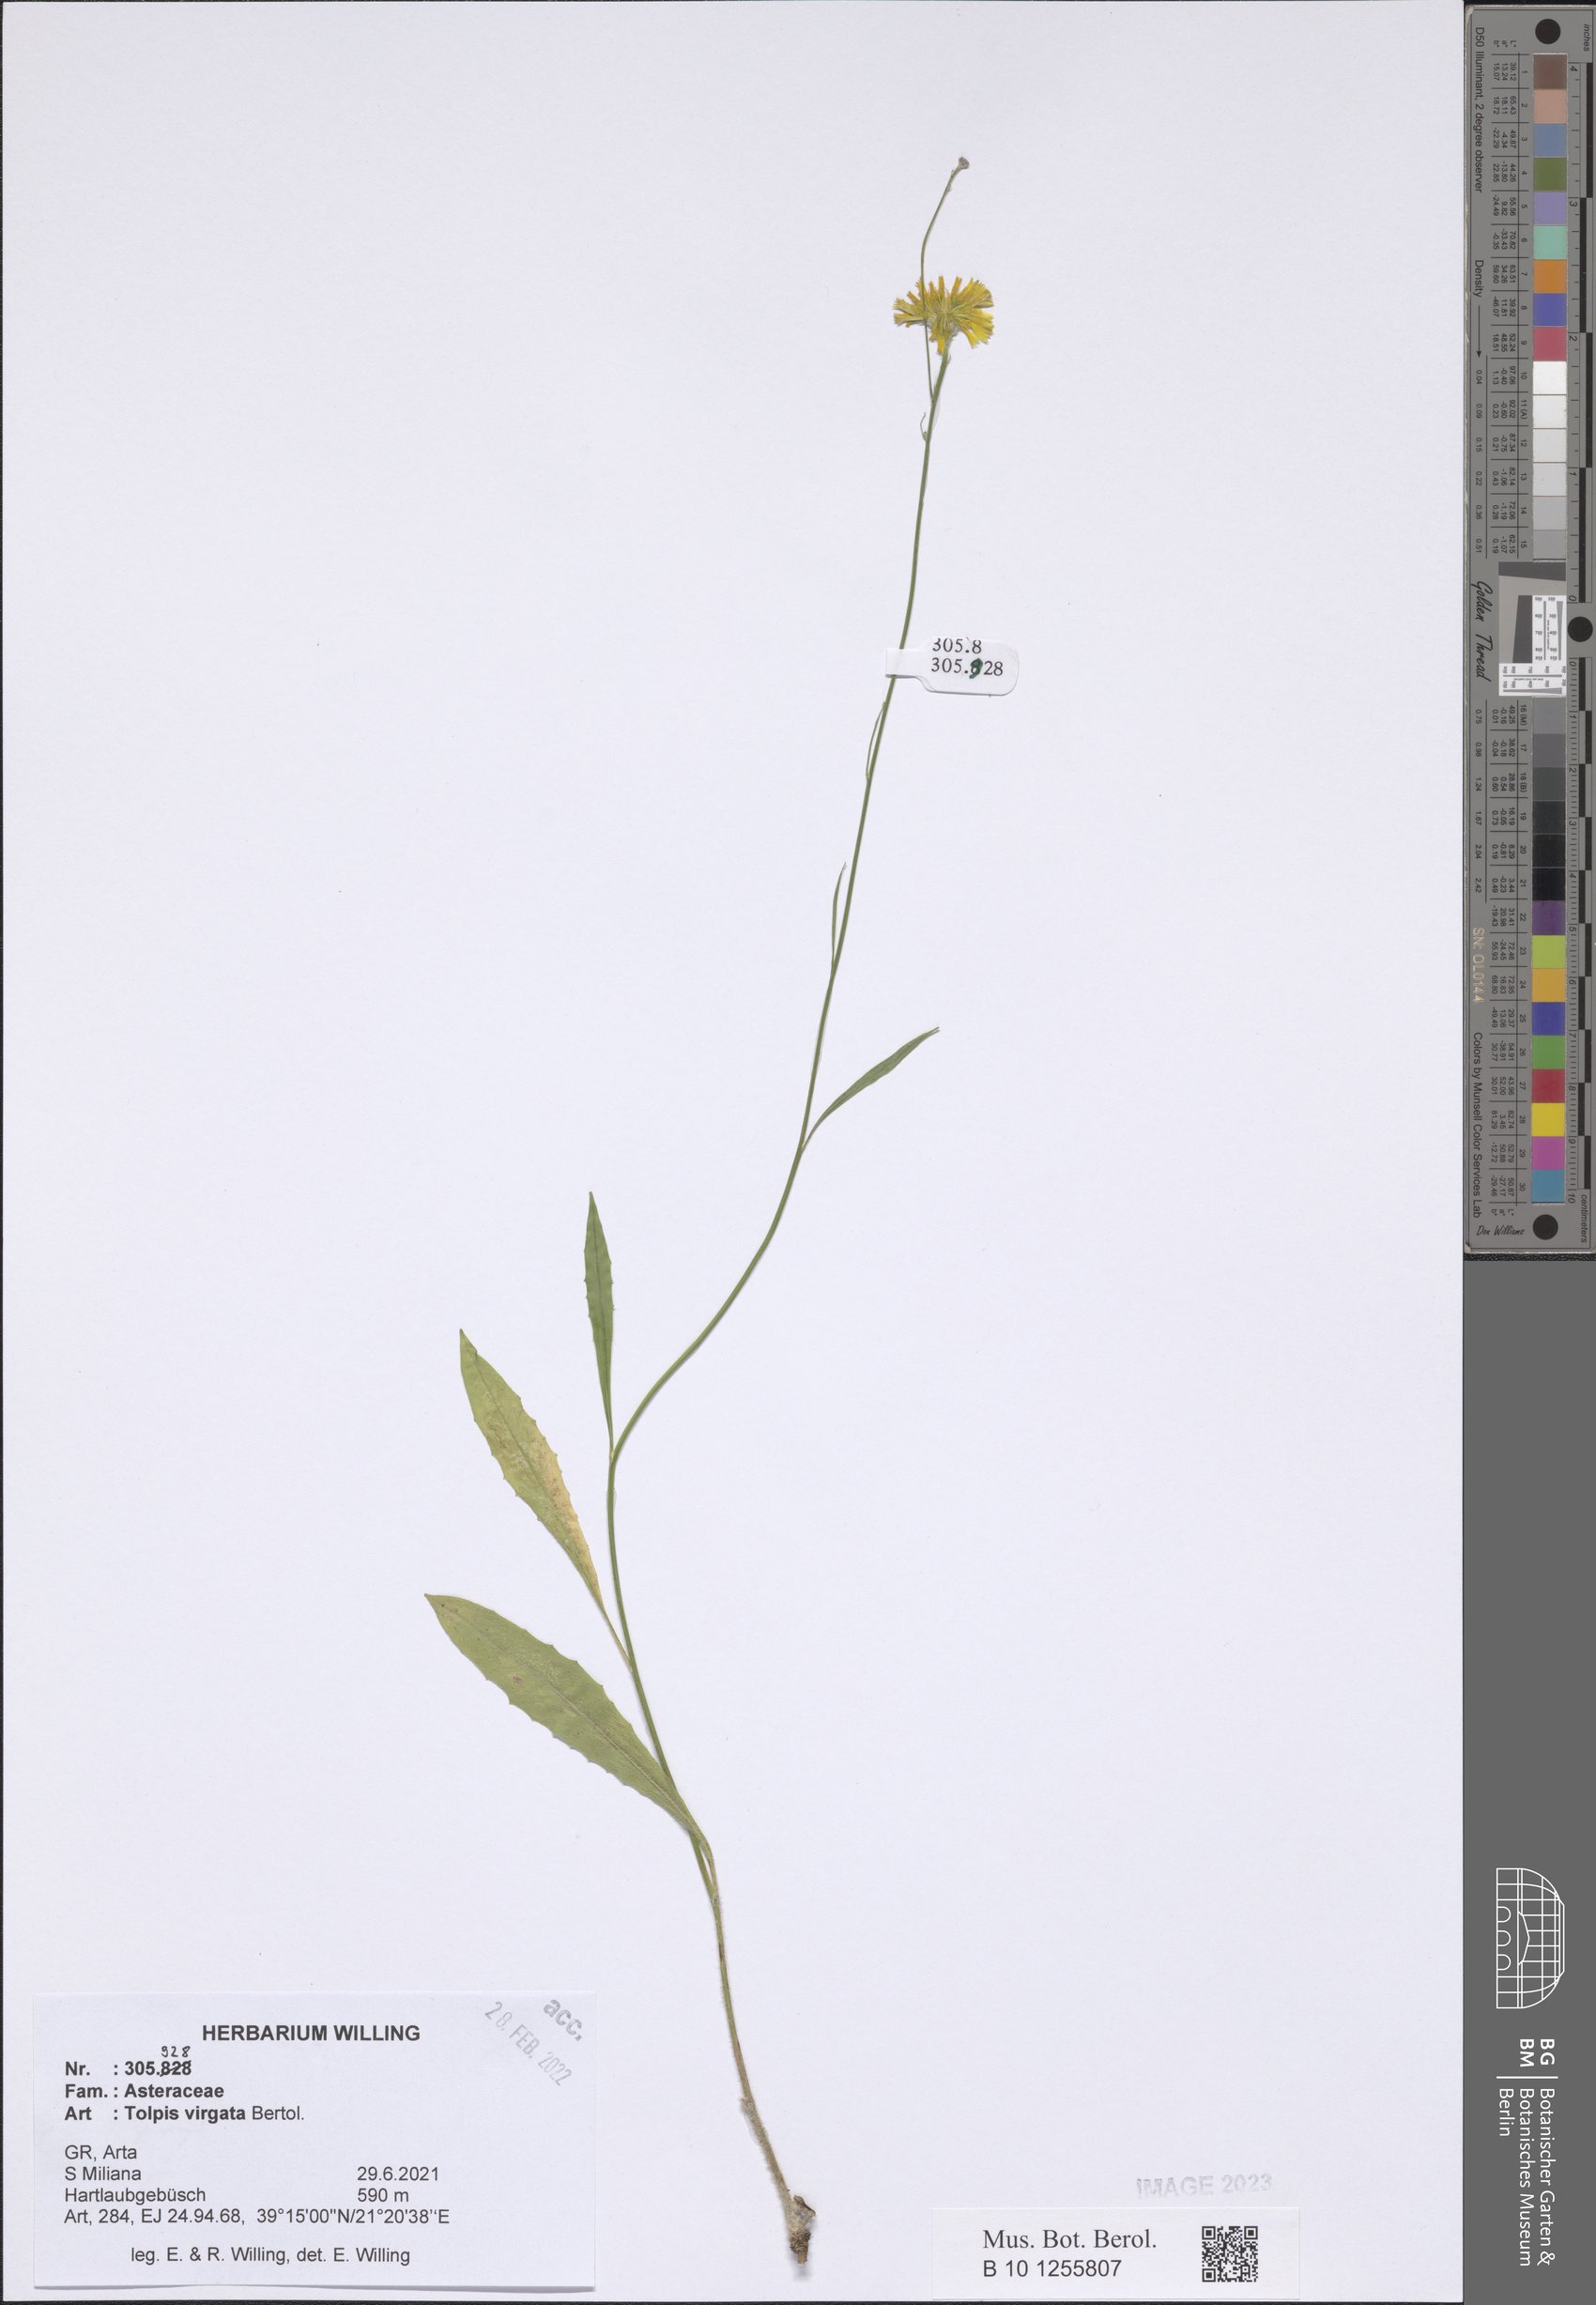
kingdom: Plantae
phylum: Tracheophyta
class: Magnoliopsida
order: Asterales
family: Asteraceae
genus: Tolpis
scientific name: Tolpis virgata
